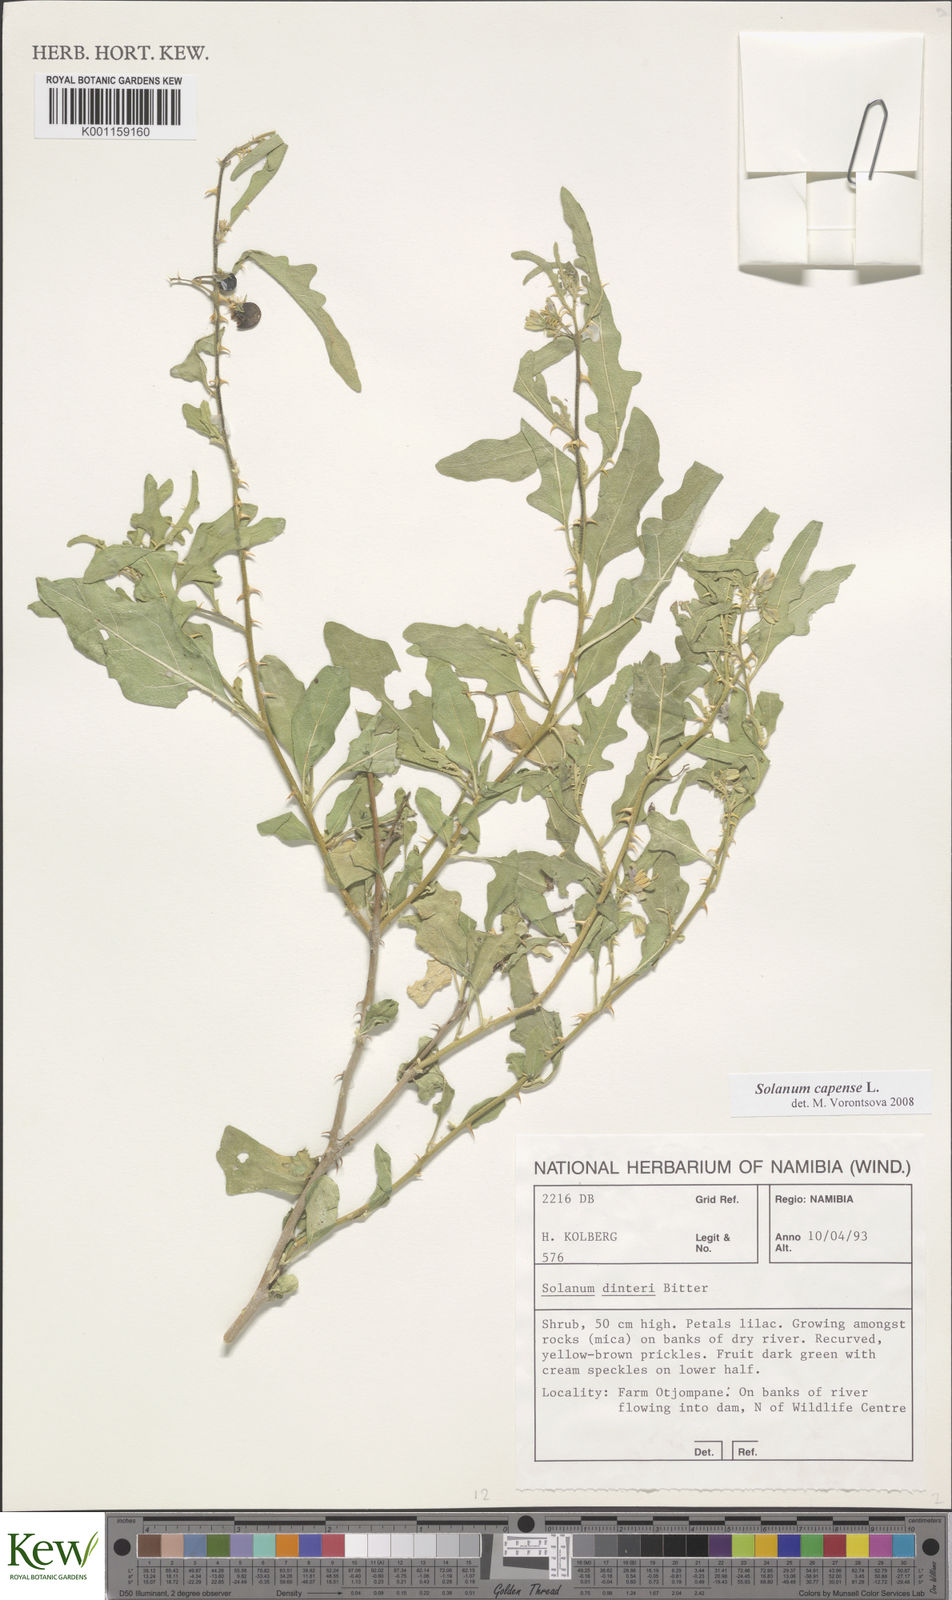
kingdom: Plantae
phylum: Tracheophyta
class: Magnoliopsida
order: Solanales
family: Solanaceae
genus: Solanum
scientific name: Solanum capense
